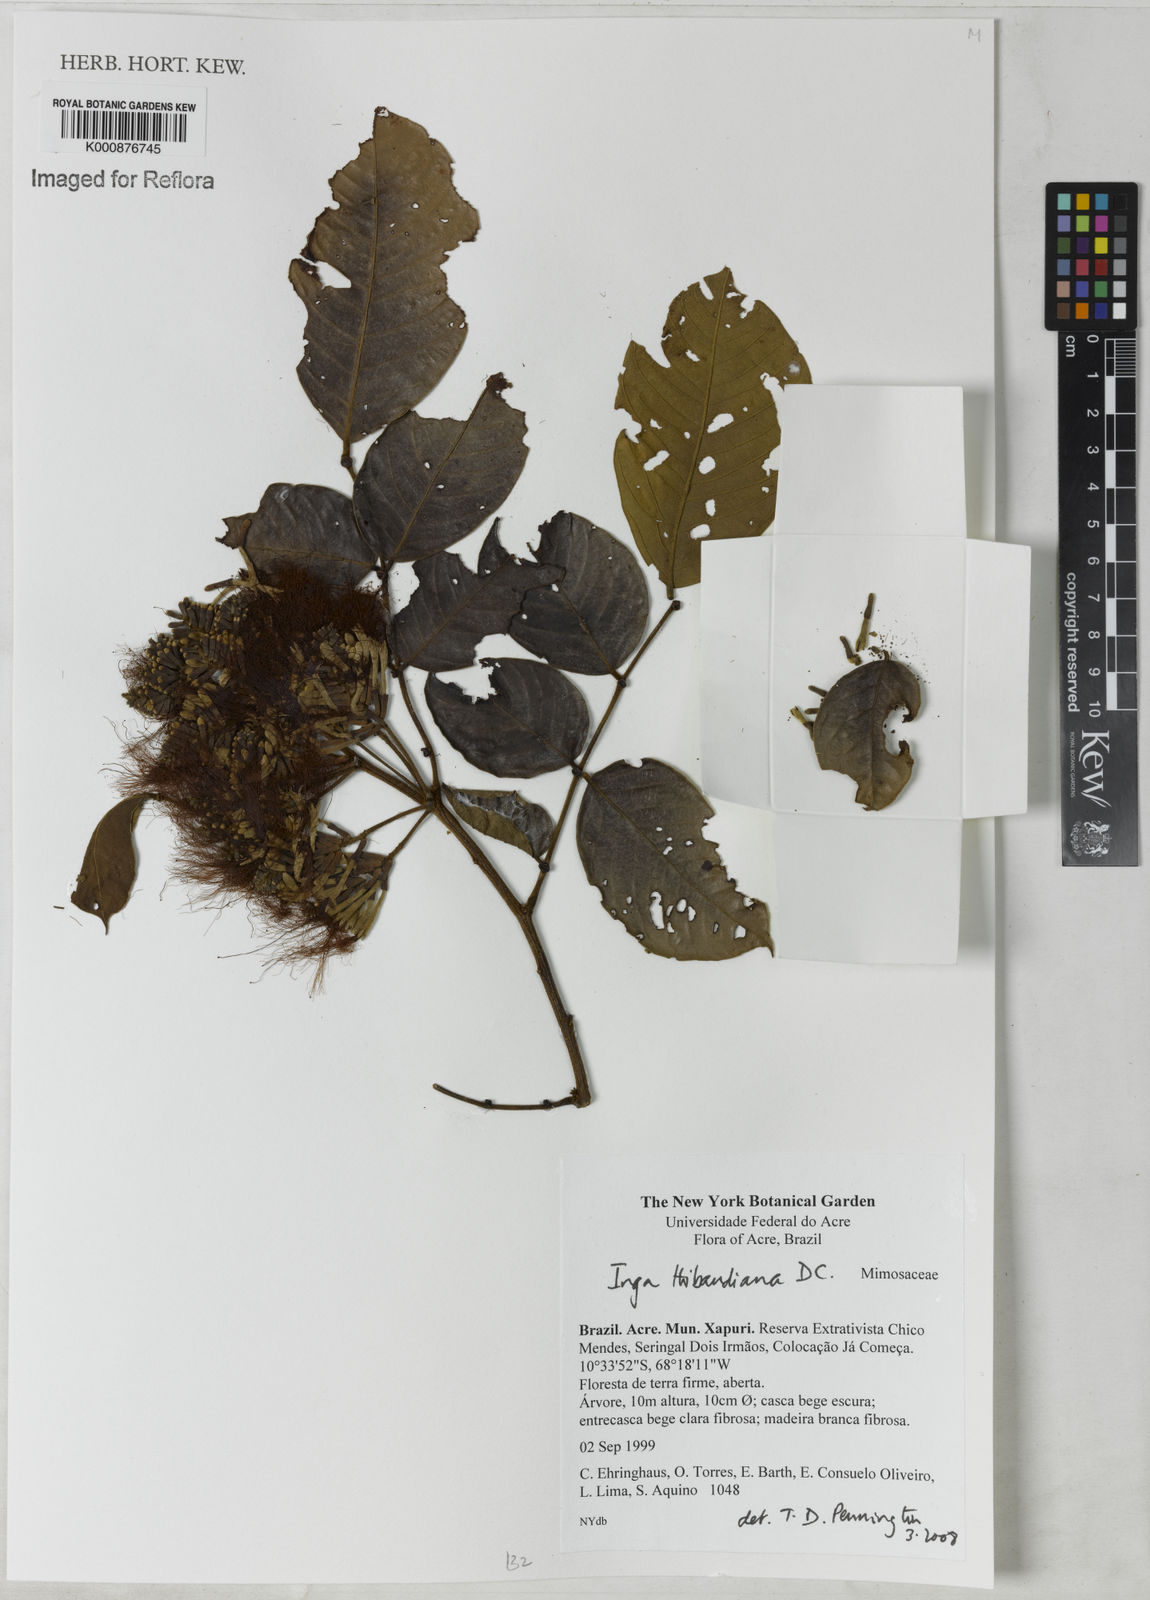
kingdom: Plantae
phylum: Tracheophyta
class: Magnoliopsida
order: Fabales
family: Fabaceae
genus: Inga
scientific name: Inga thibaudiana
